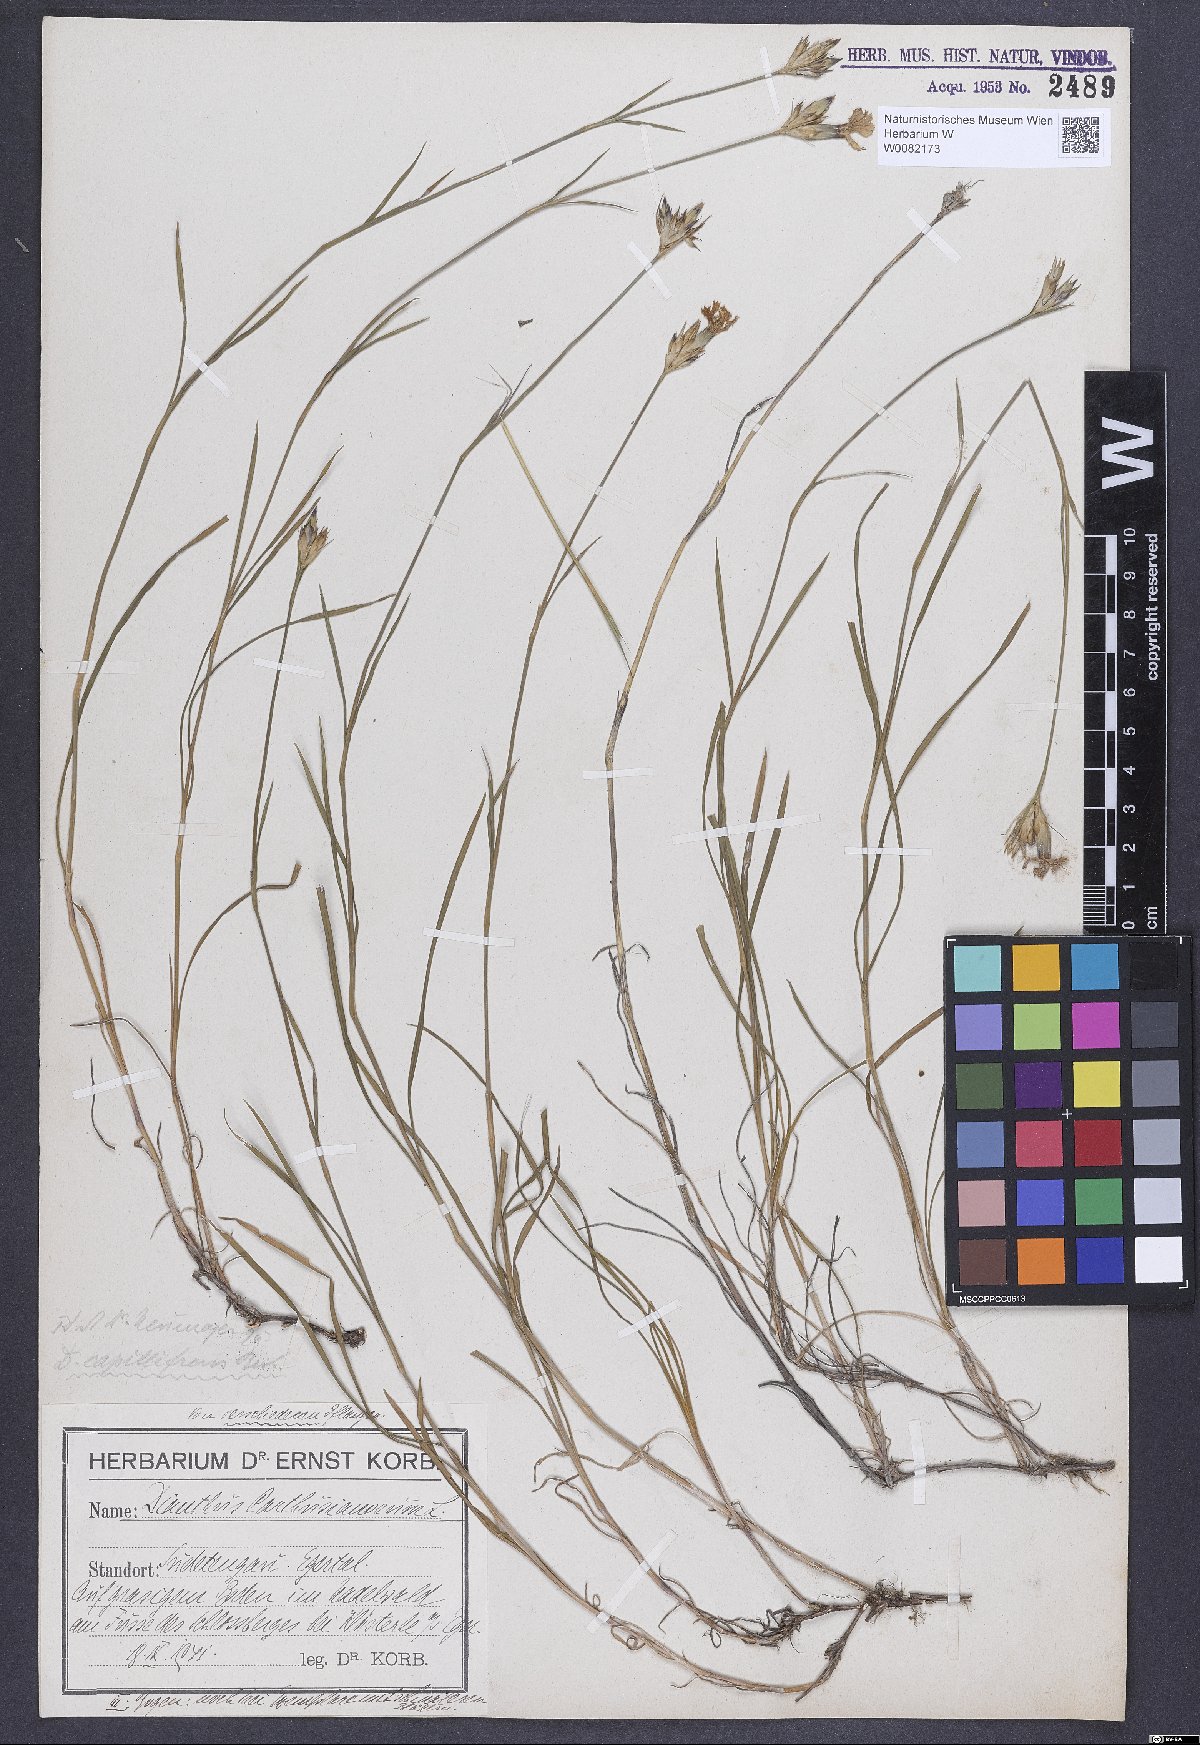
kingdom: Plantae
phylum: Tracheophyta
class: Magnoliopsida
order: Caryophyllales
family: Caryophyllaceae
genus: Dianthus
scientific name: Dianthus carthusianorum
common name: Carthusian pink
